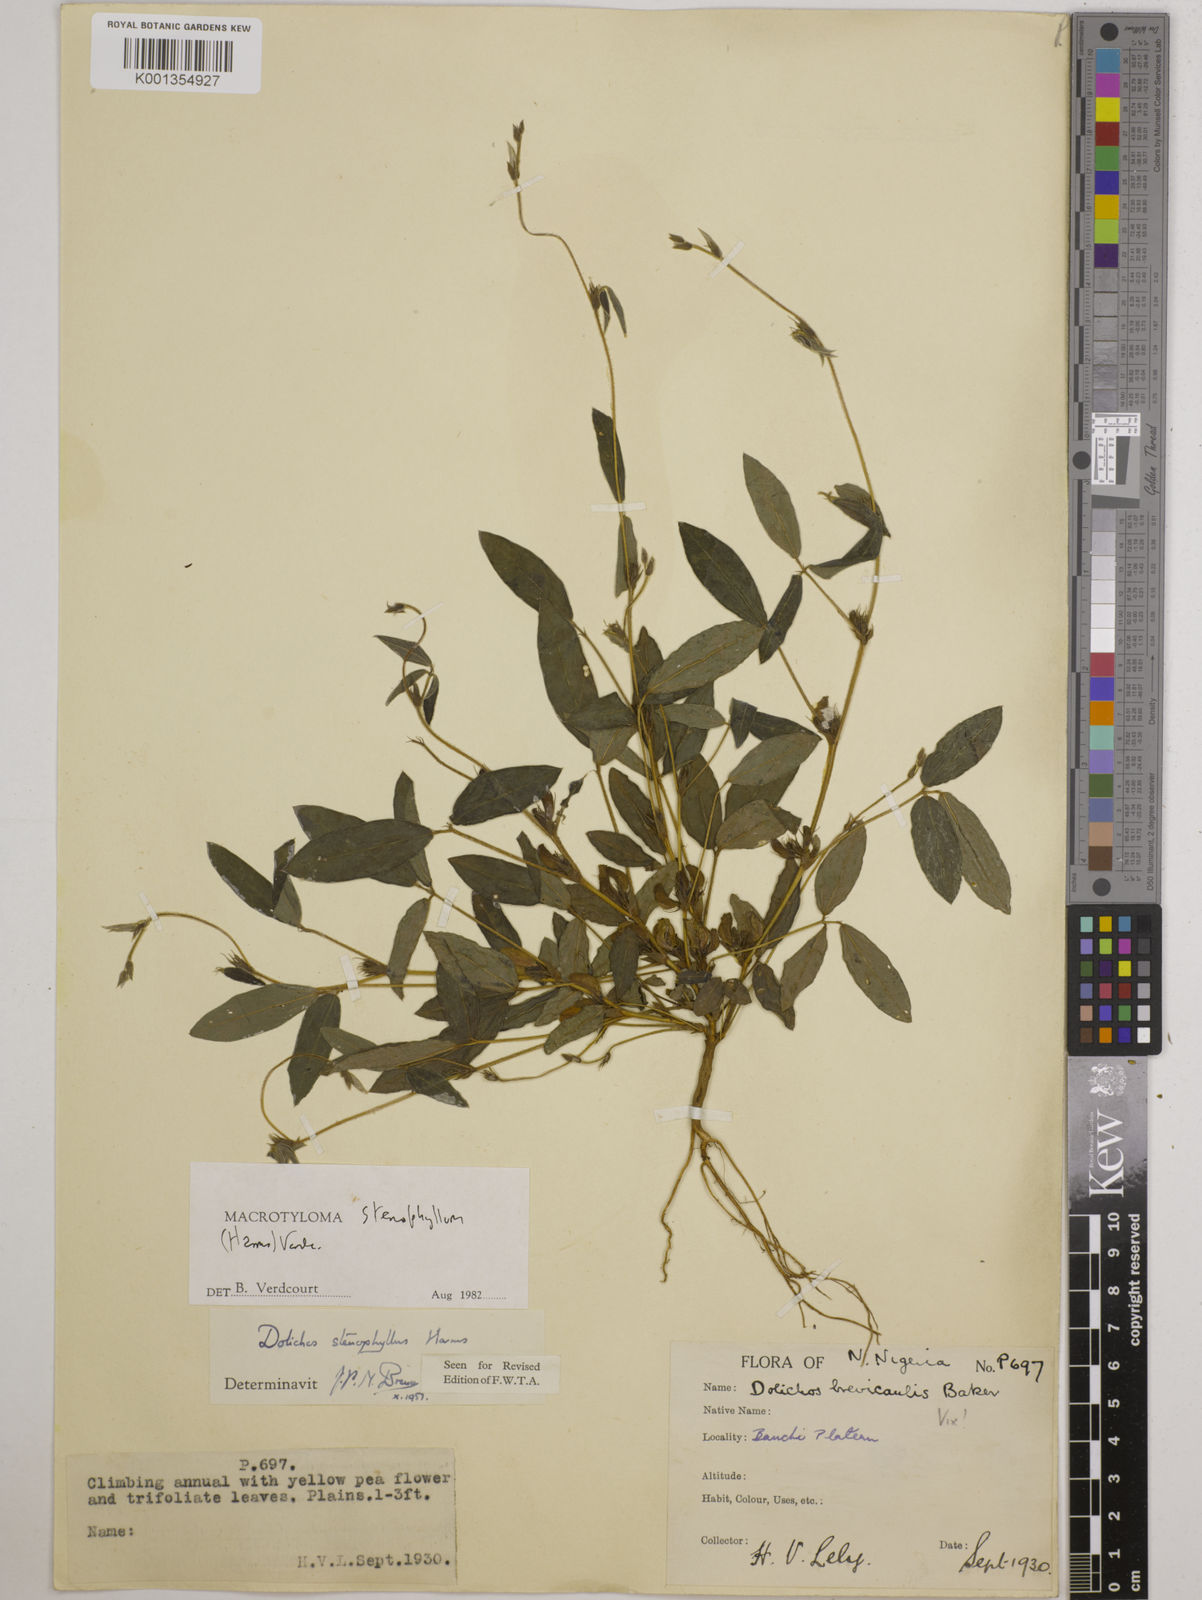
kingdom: Plantae
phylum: Tracheophyta
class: Magnoliopsida
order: Fabales
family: Fabaceae
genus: Macrotyloma
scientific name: Macrotyloma stenophyllum
